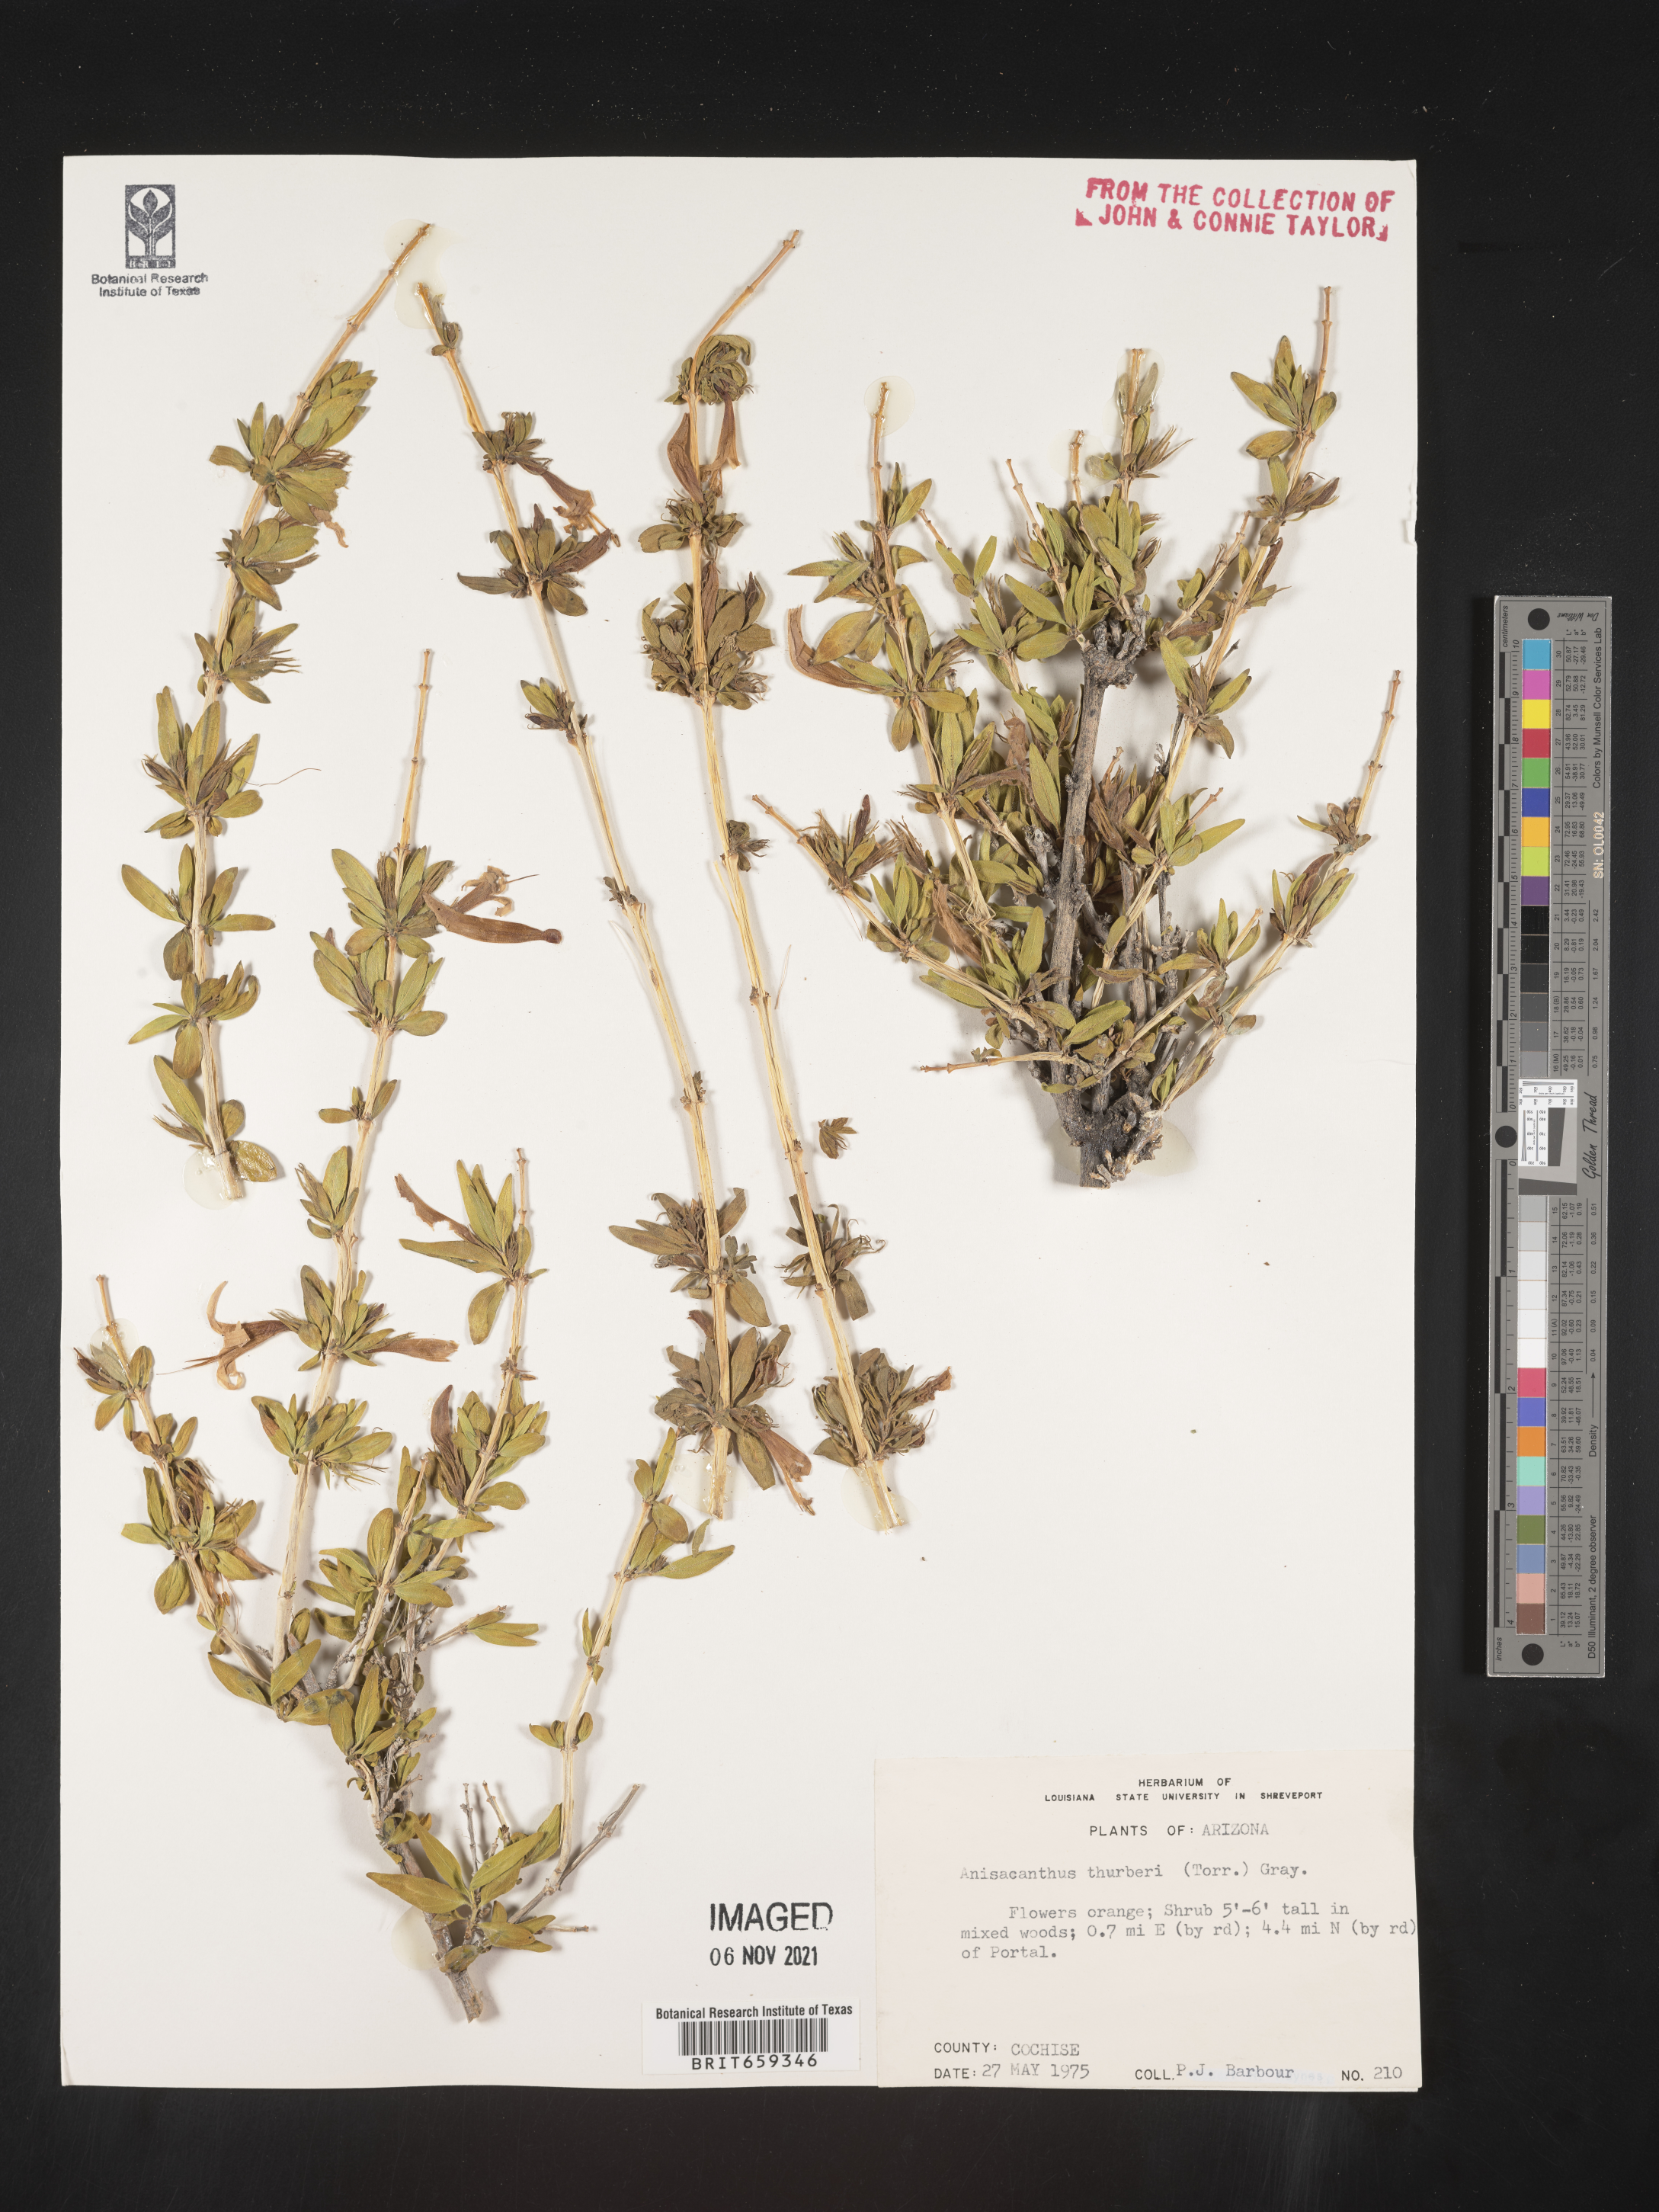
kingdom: Plantae
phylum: Tracheophyta
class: Magnoliopsida
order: Lamiales
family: Acanthaceae
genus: Anisacanthus
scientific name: Anisacanthus
